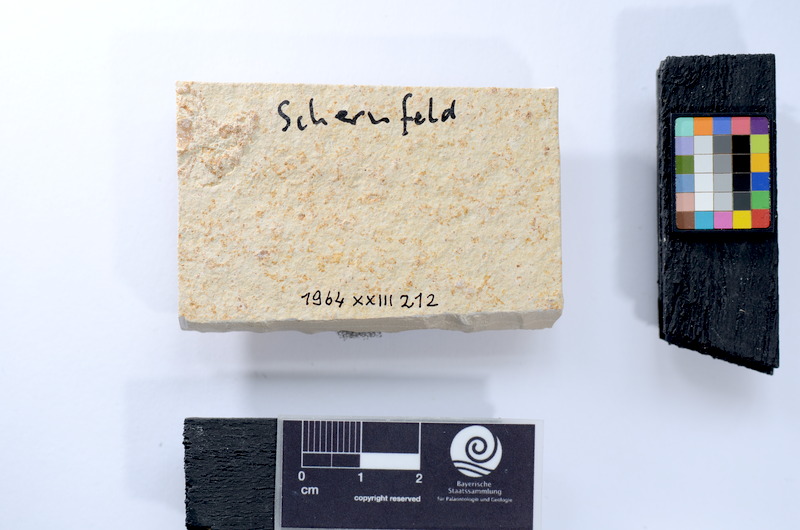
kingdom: Animalia
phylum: Chordata
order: Salmoniformes
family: Orthogonikleithridae
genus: Leptolepides
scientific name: Leptolepides
